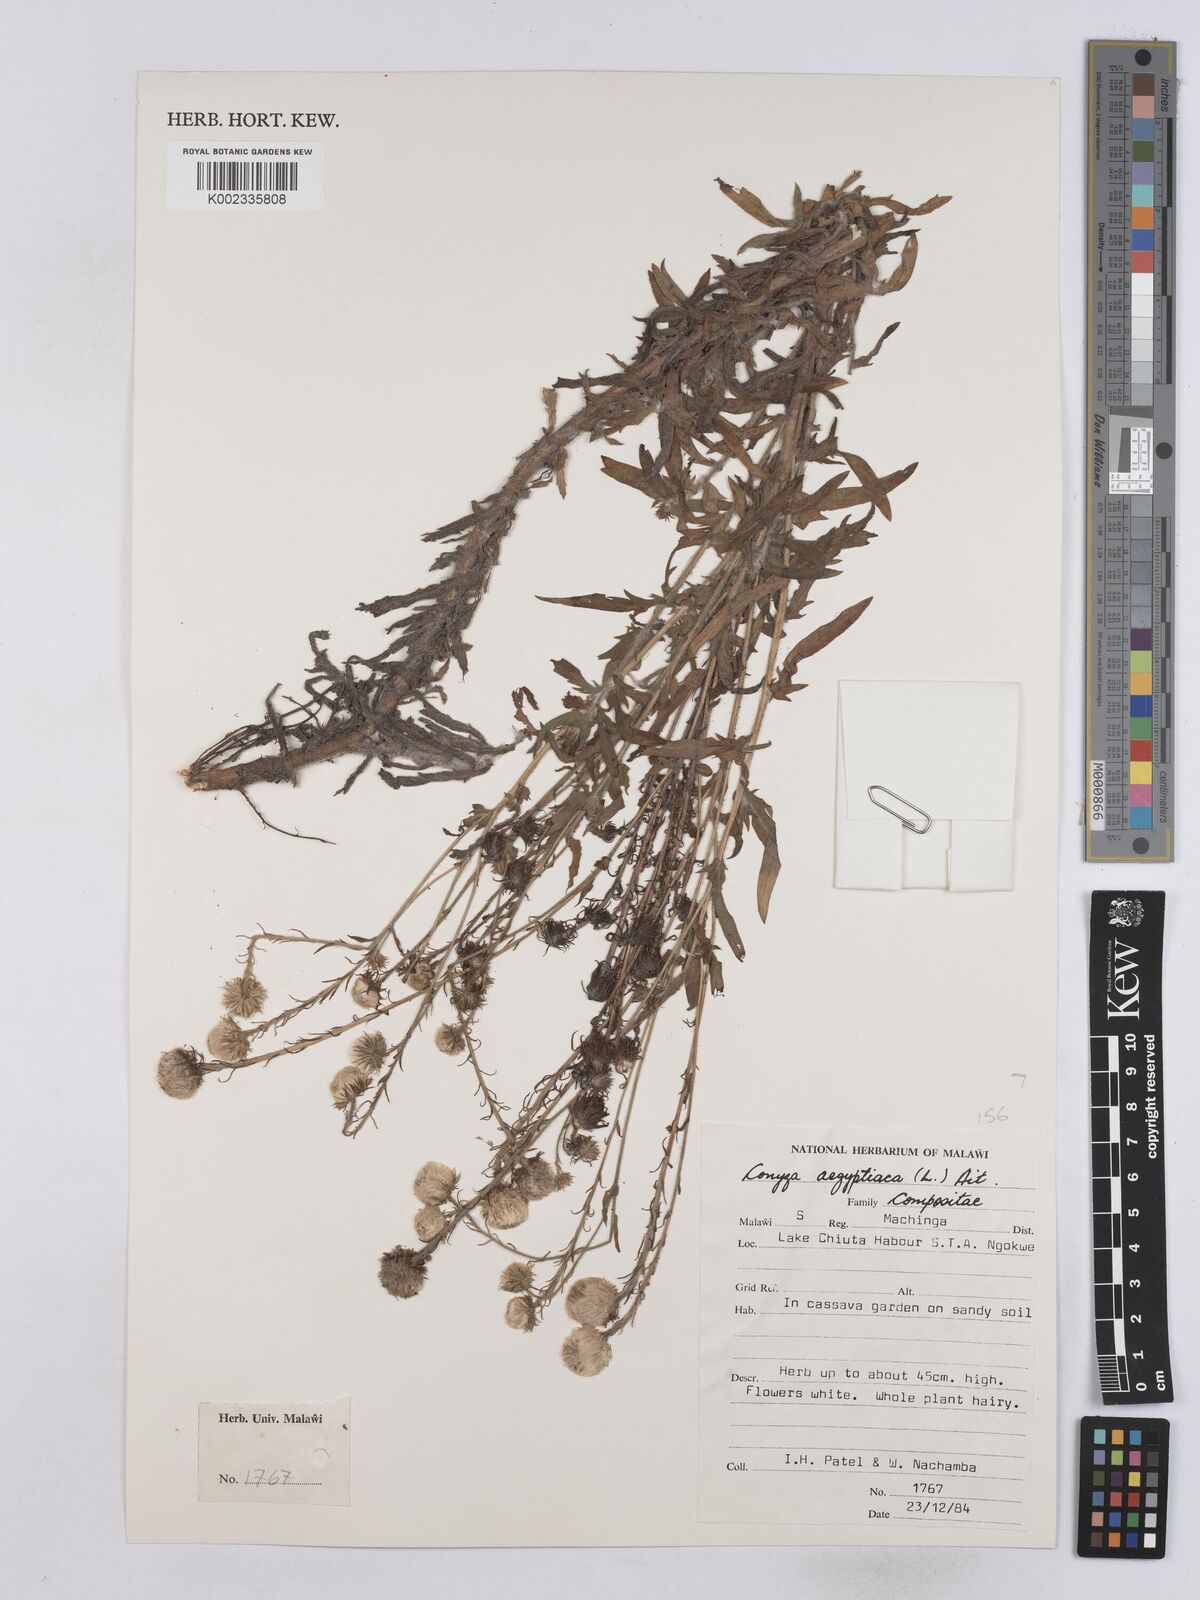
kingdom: Plantae
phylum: Tracheophyta
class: Magnoliopsida
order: Asterales
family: Asteraceae
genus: Nidorella
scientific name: Nidorella aegyptiaca
